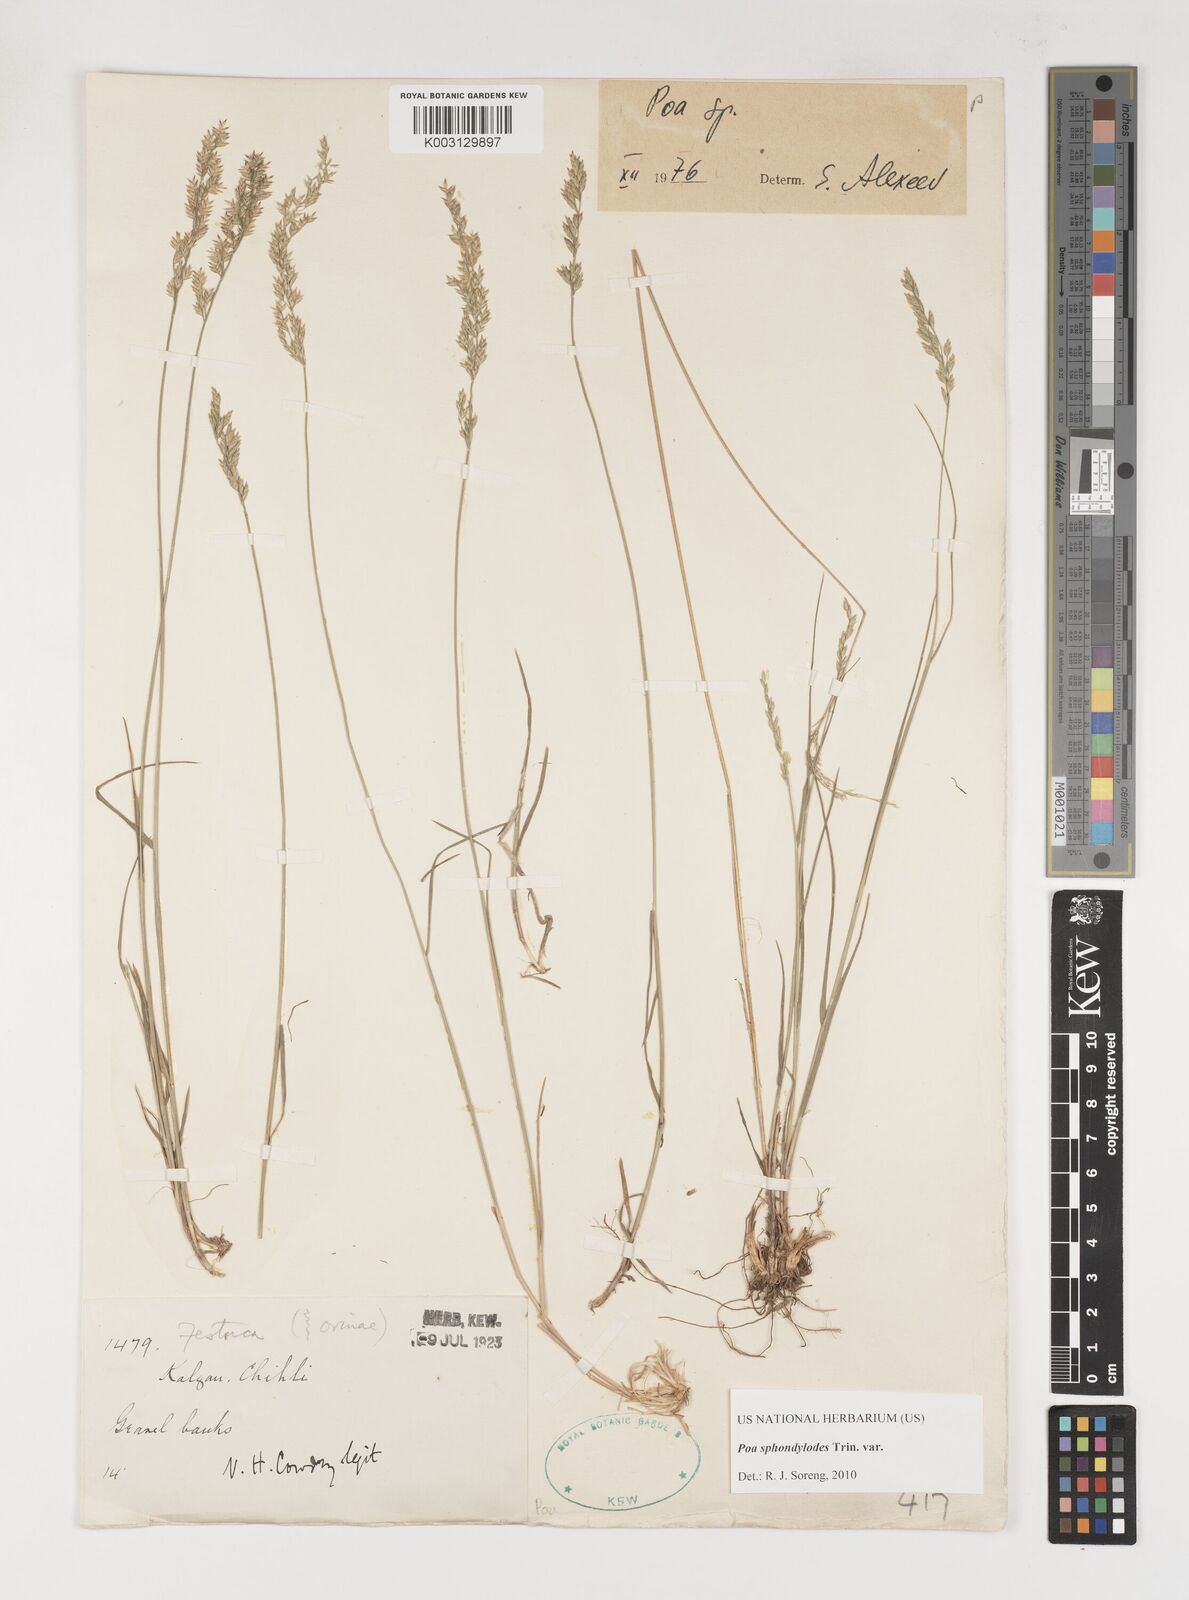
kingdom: Plantae
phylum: Tracheophyta
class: Liliopsida
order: Poales
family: Poaceae
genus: Poa
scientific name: Poa sphondylodes
